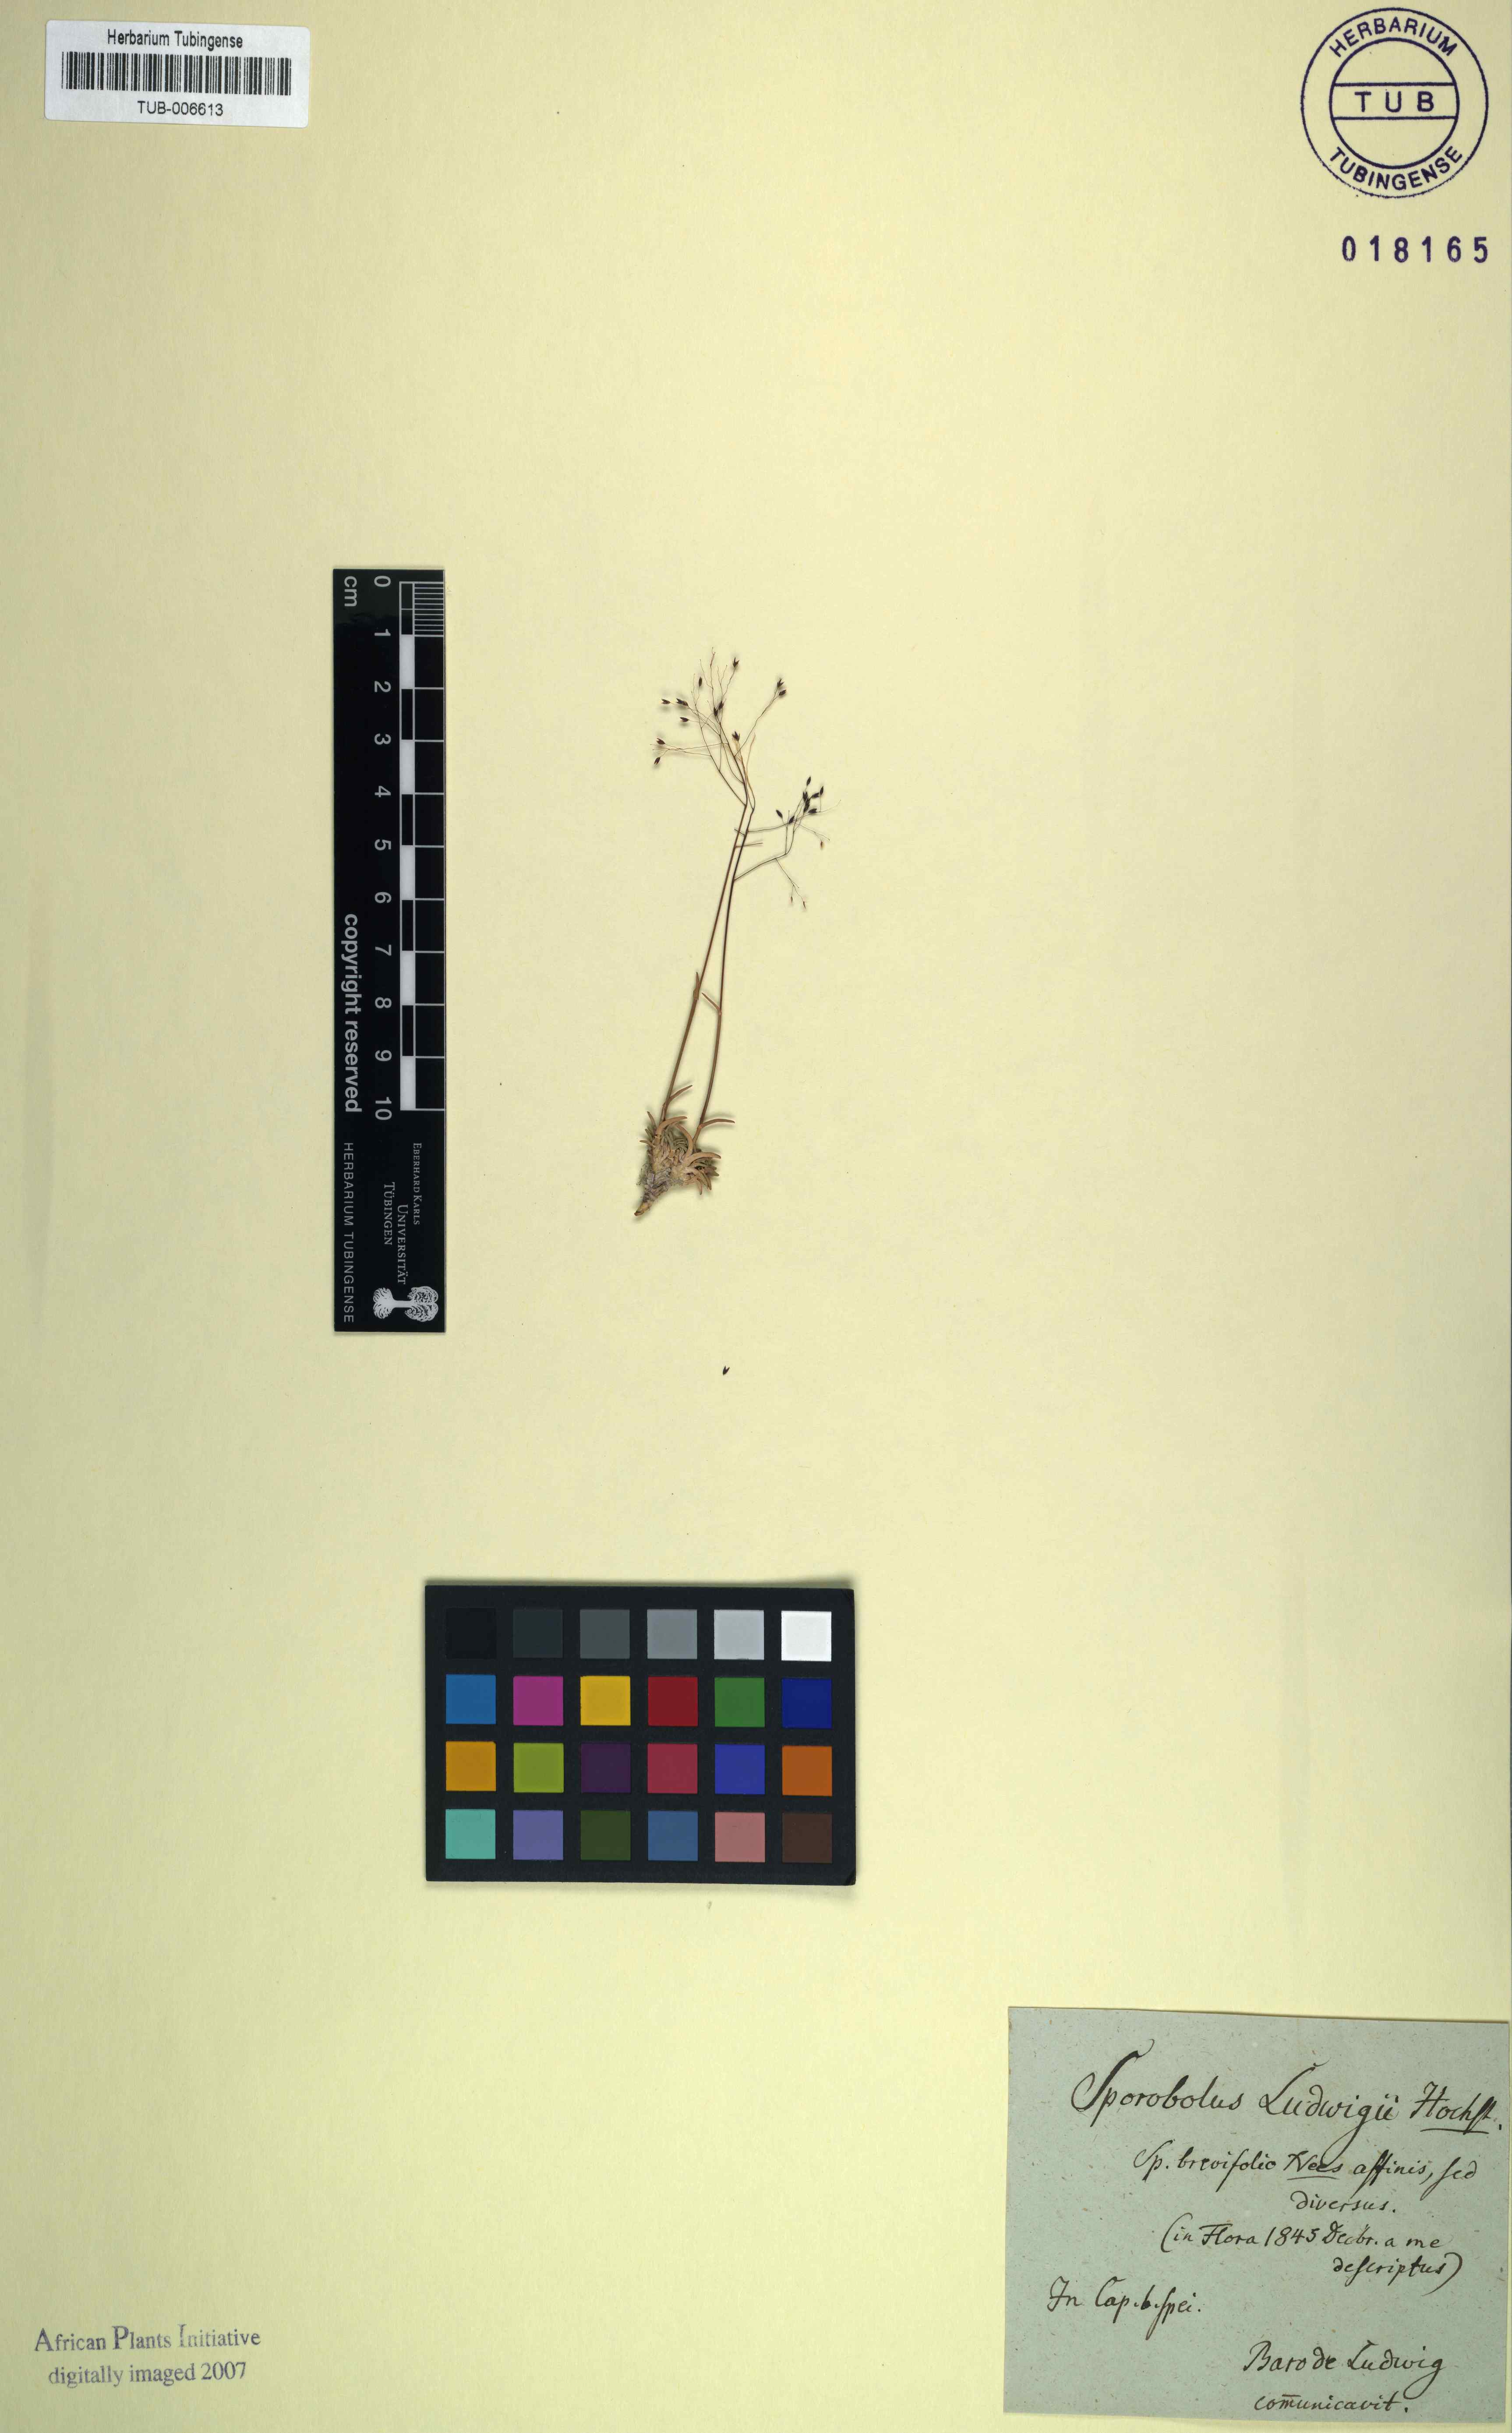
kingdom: Plantae
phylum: Tracheophyta
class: Liliopsida
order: Poales
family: Poaceae
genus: Sporobolus
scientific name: Sporobolus ludwigii
